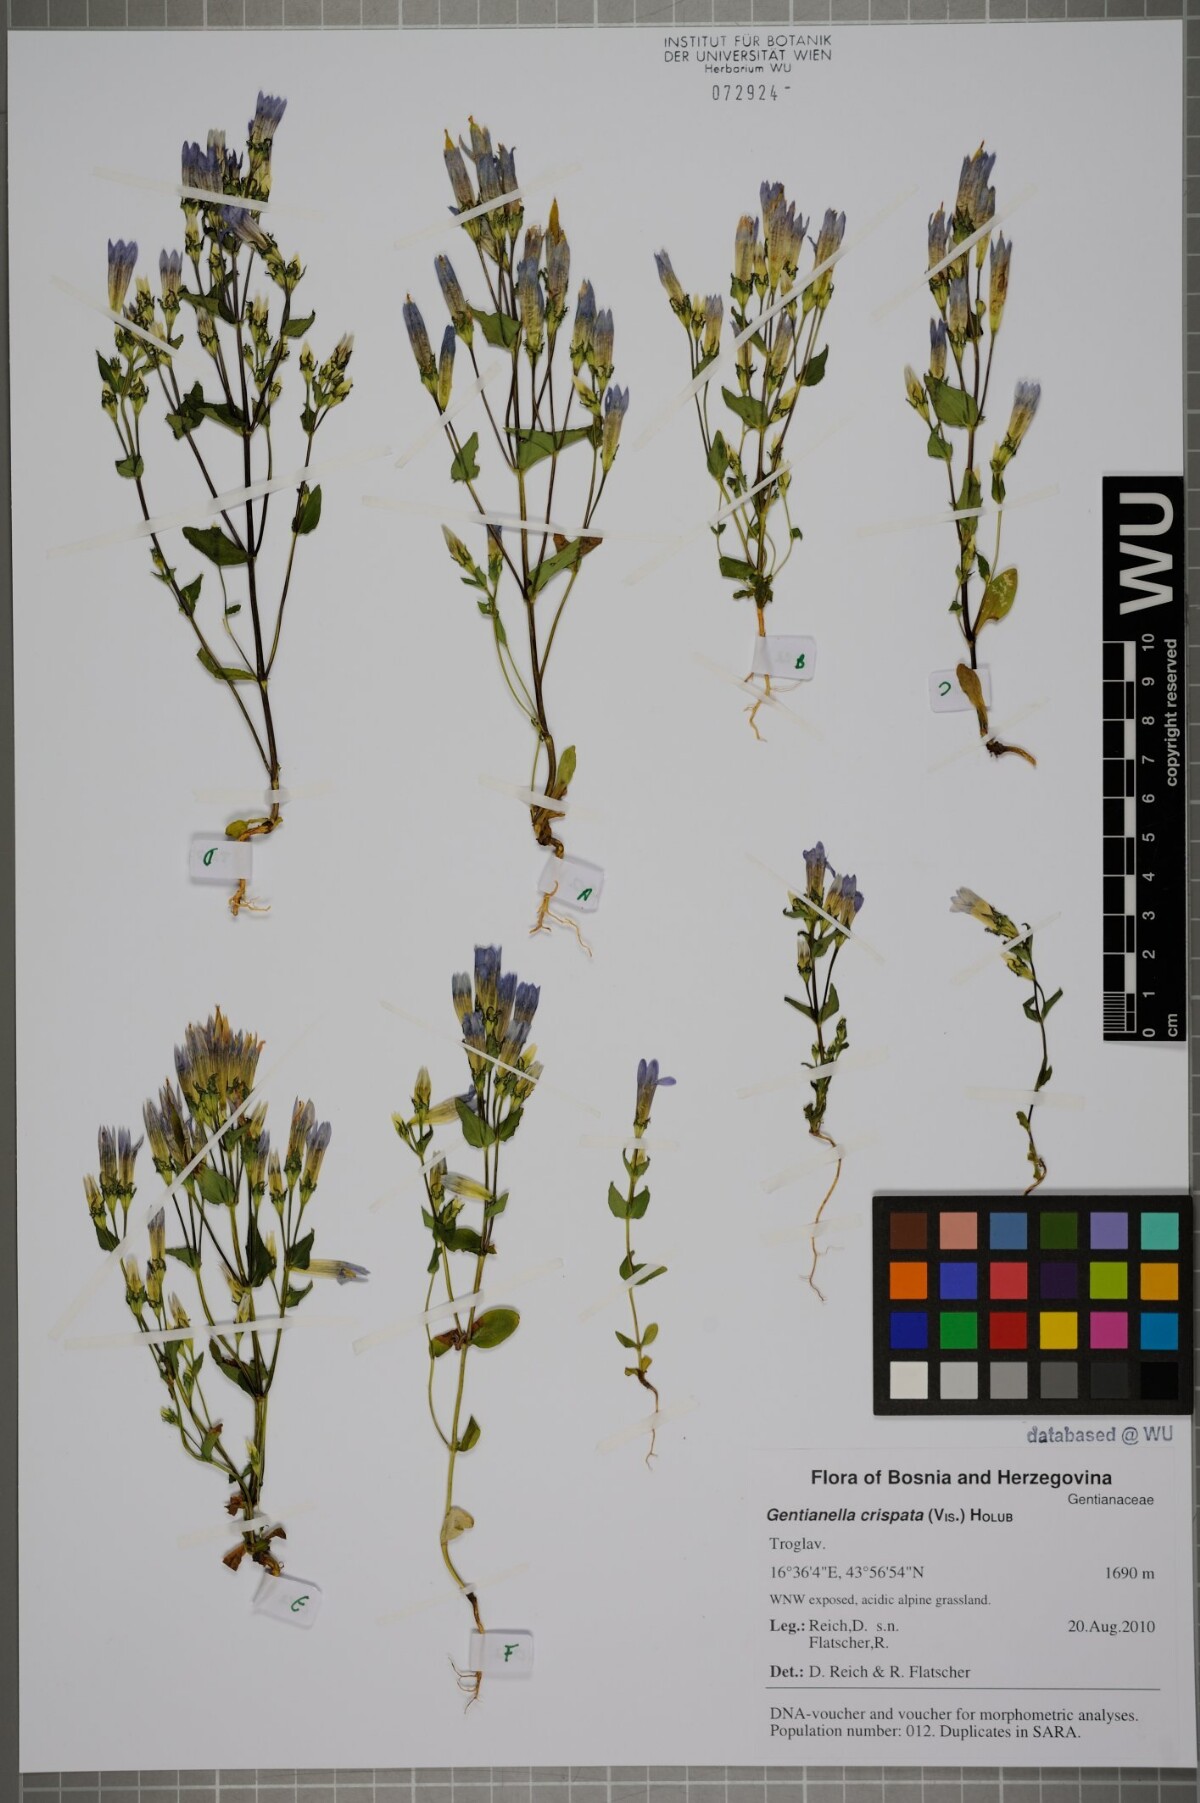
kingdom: Plantae
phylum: Tracheophyta
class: Magnoliopsida
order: Gentianales
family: Gentianaceae
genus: Gentianella
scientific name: Gentianella crispata
